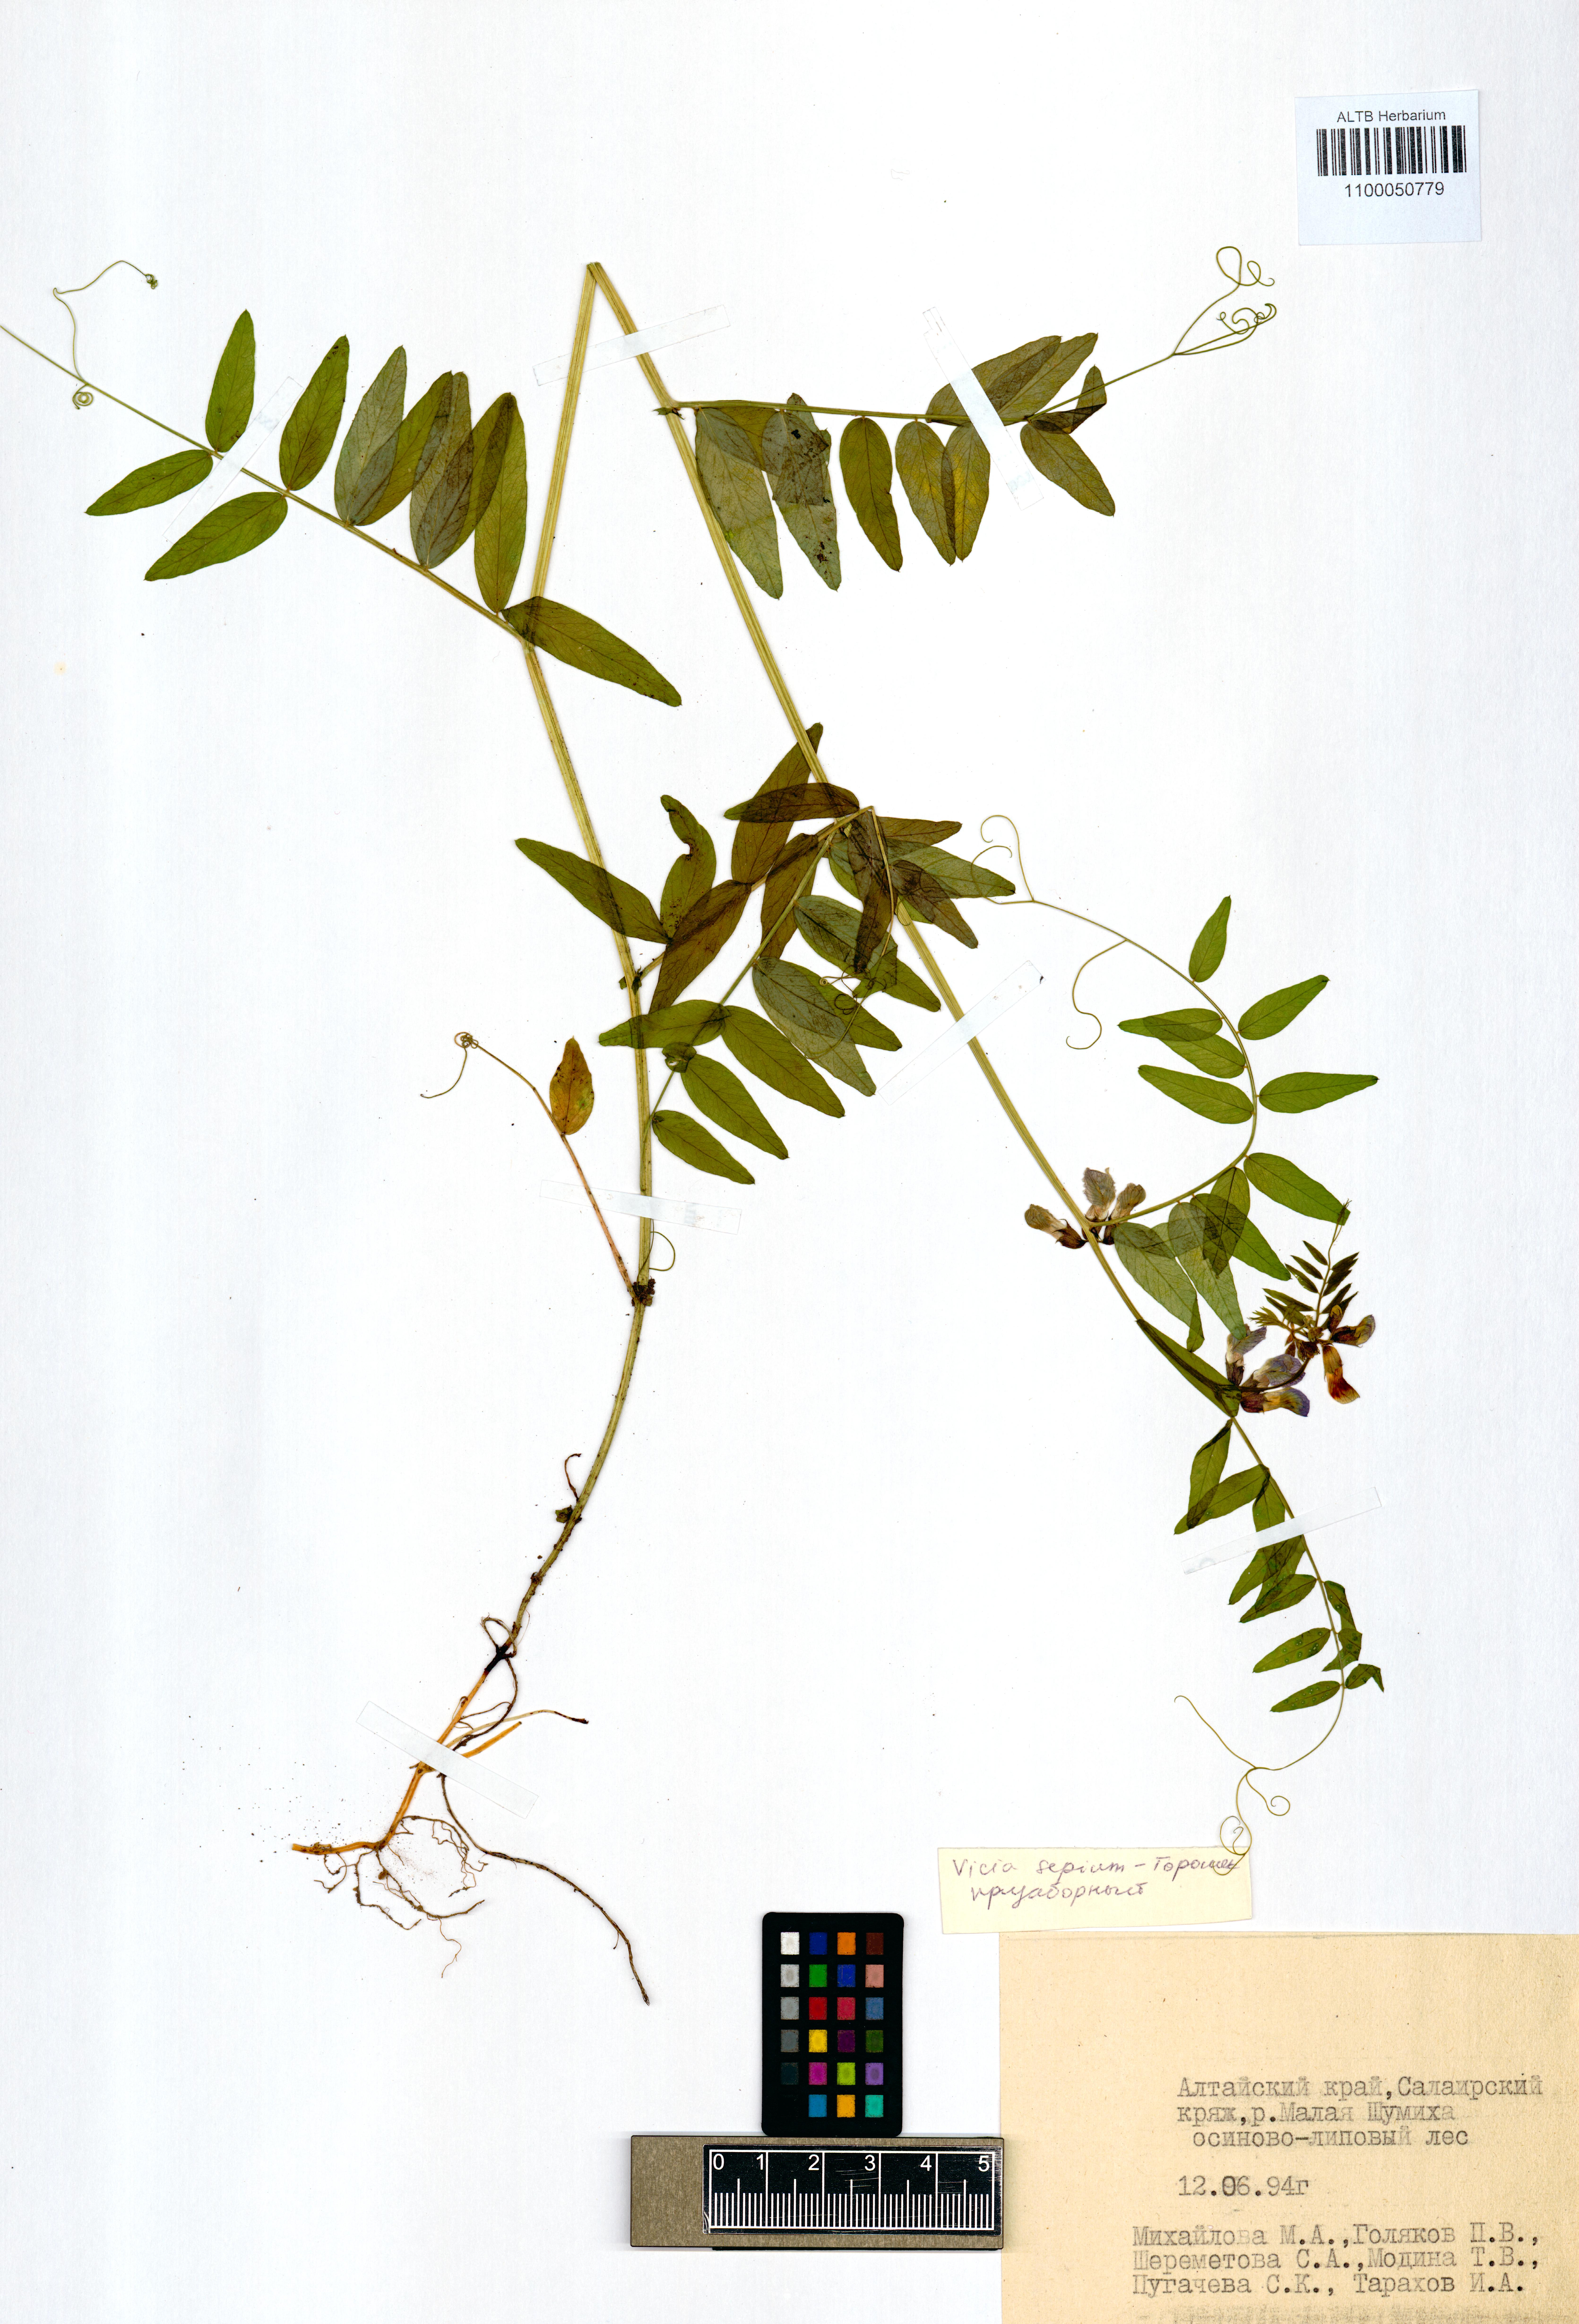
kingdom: Plantae
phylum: Tracheophyta
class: Magnoliopsida
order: Fabales
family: Fabaceae
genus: Vicia
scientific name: Vicia sepium
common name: Bush vetch
